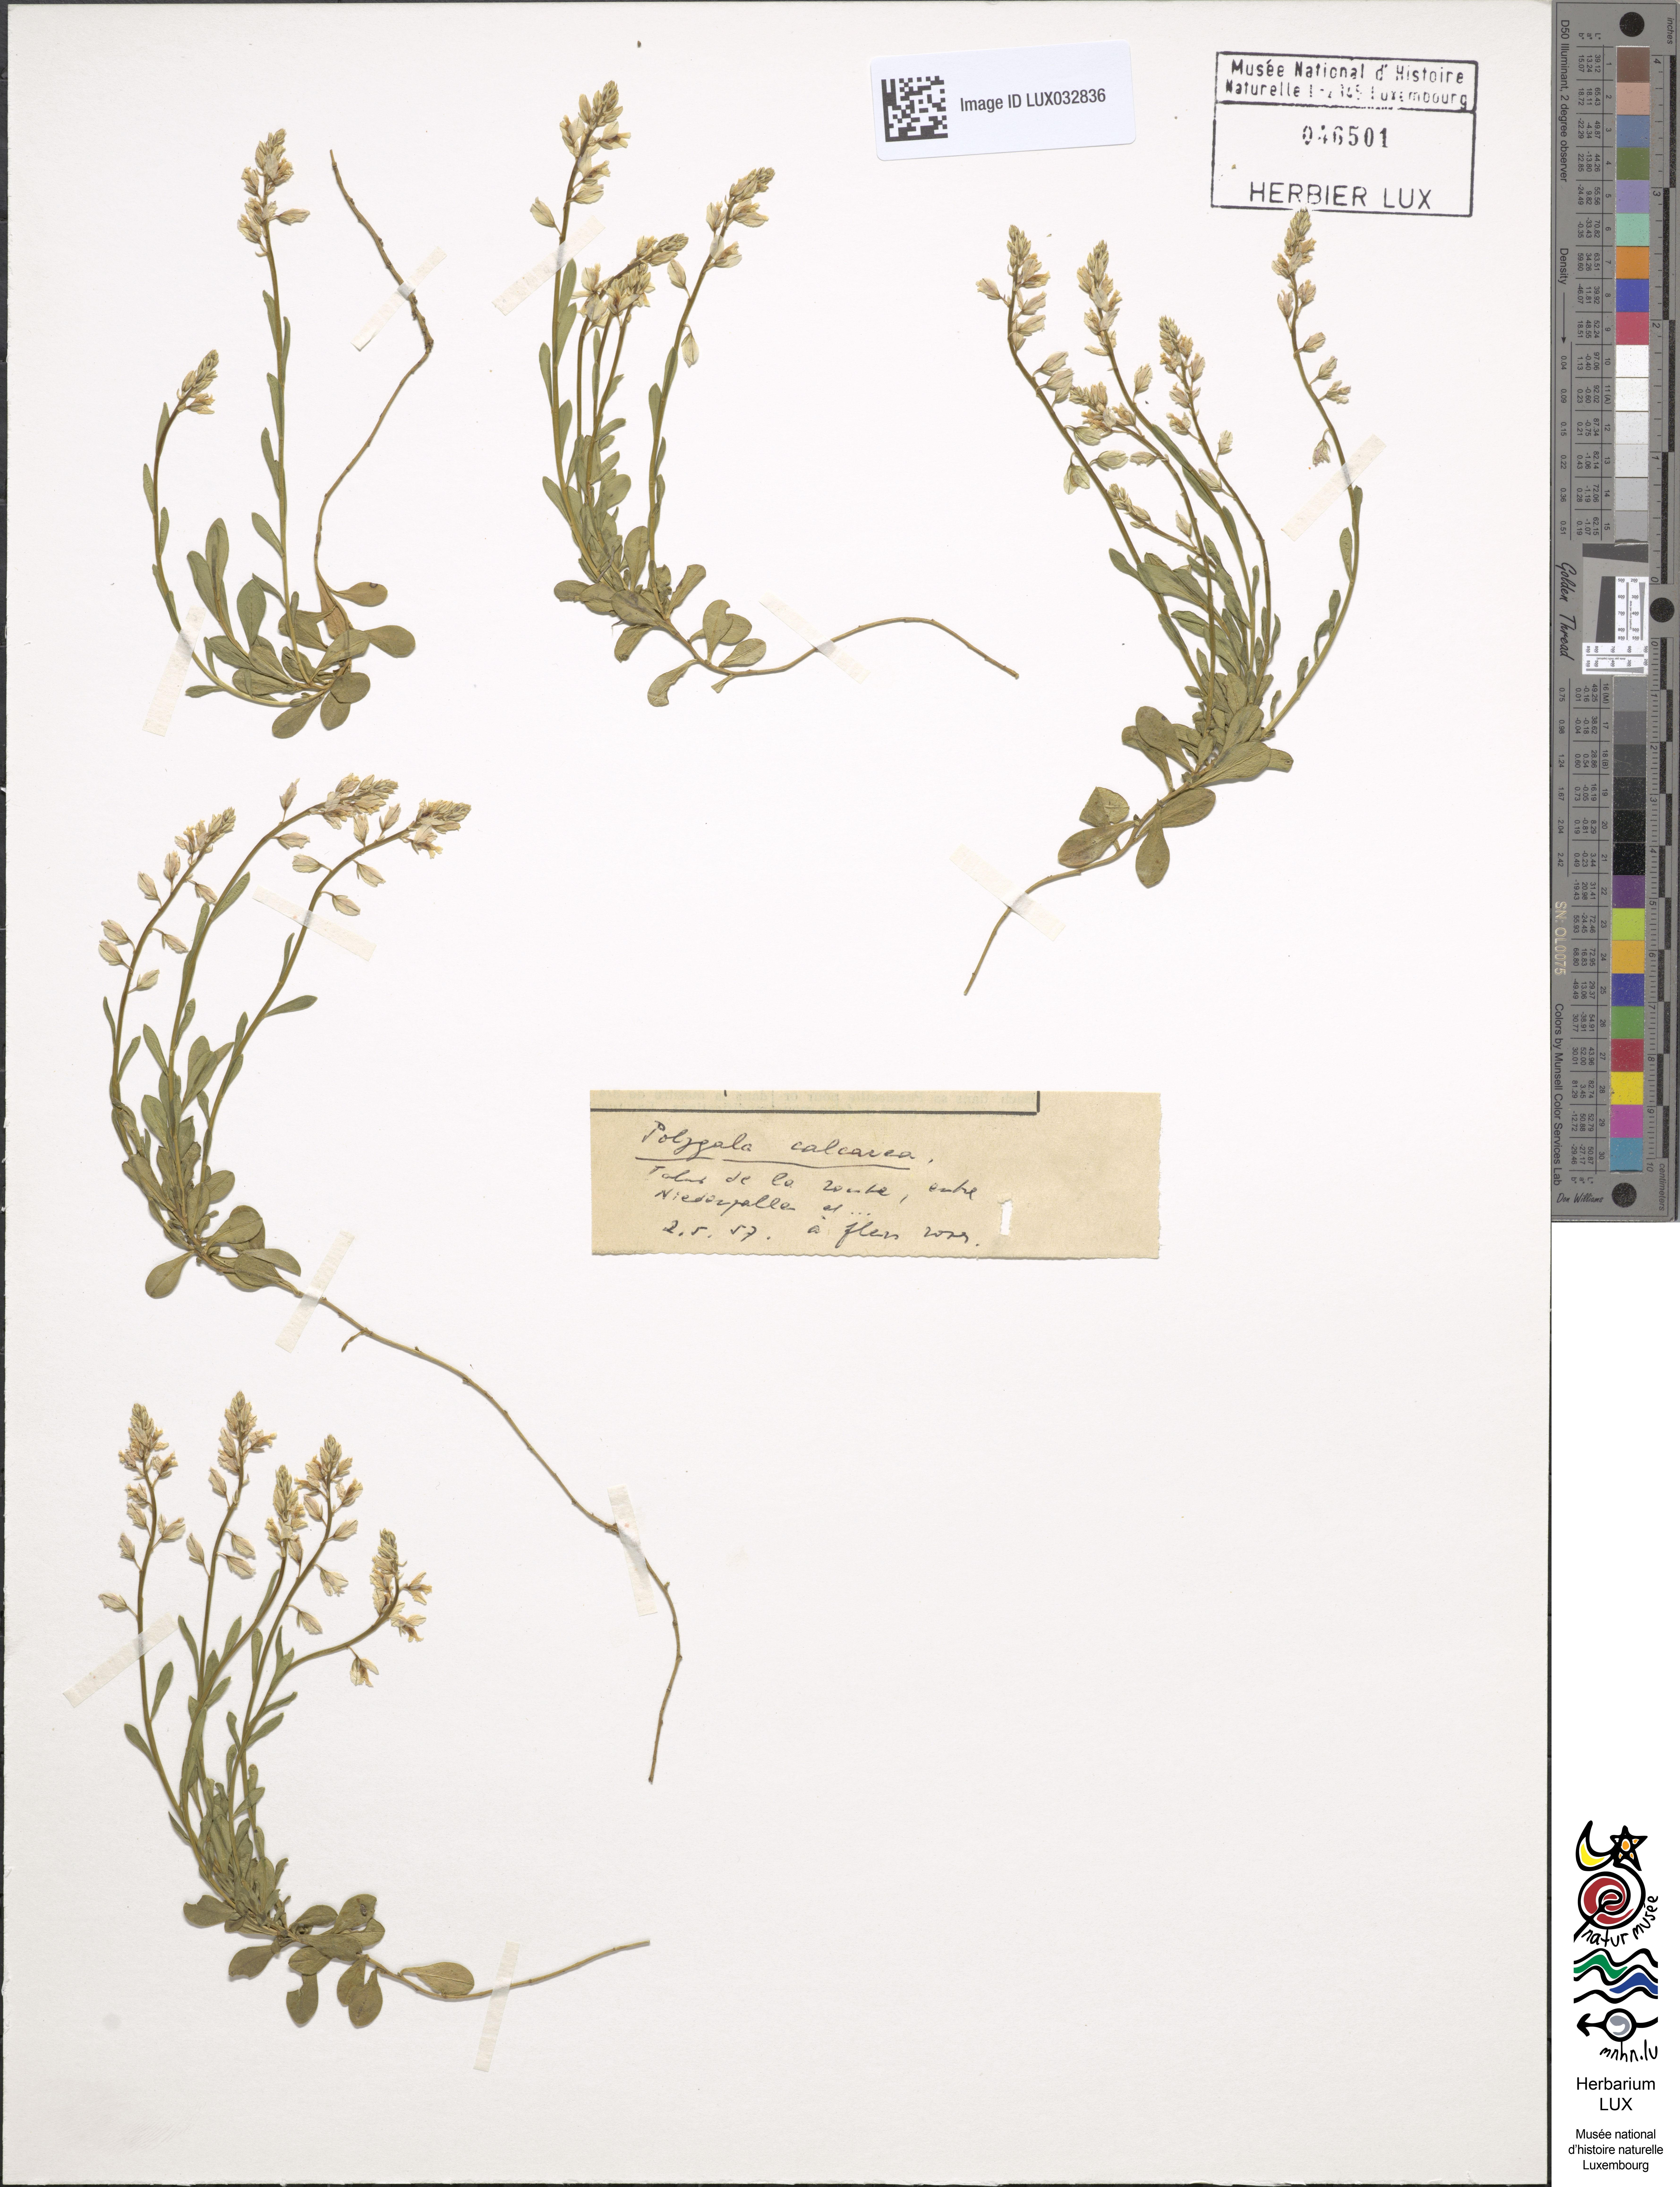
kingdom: Plantae
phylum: Tracheophyta
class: Magnoliopsida
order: Fabales
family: Polygalaceae
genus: Polygala
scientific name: Polygala calcarea
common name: Chalk milkwort
